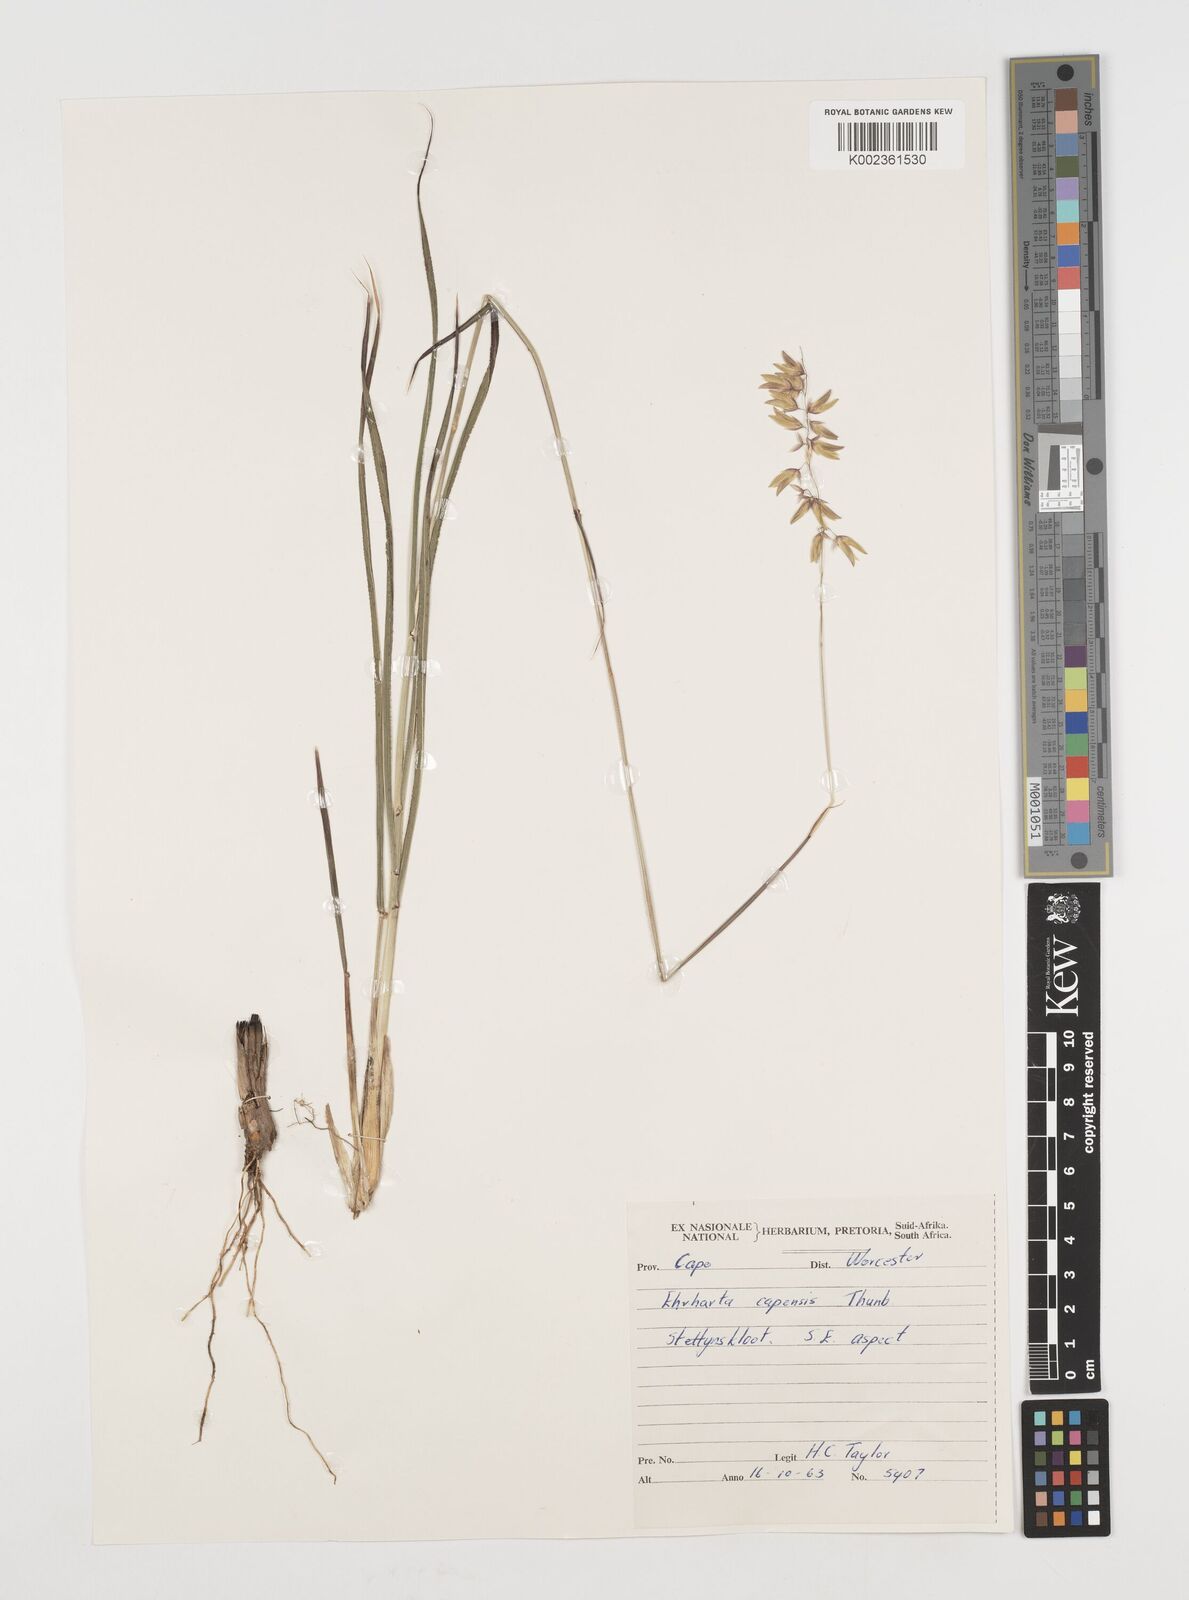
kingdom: Plantae
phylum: Tracheophyta
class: Liliopsida
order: Poales
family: Poaceae
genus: Ehrharta
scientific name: Ehrharta capensis
